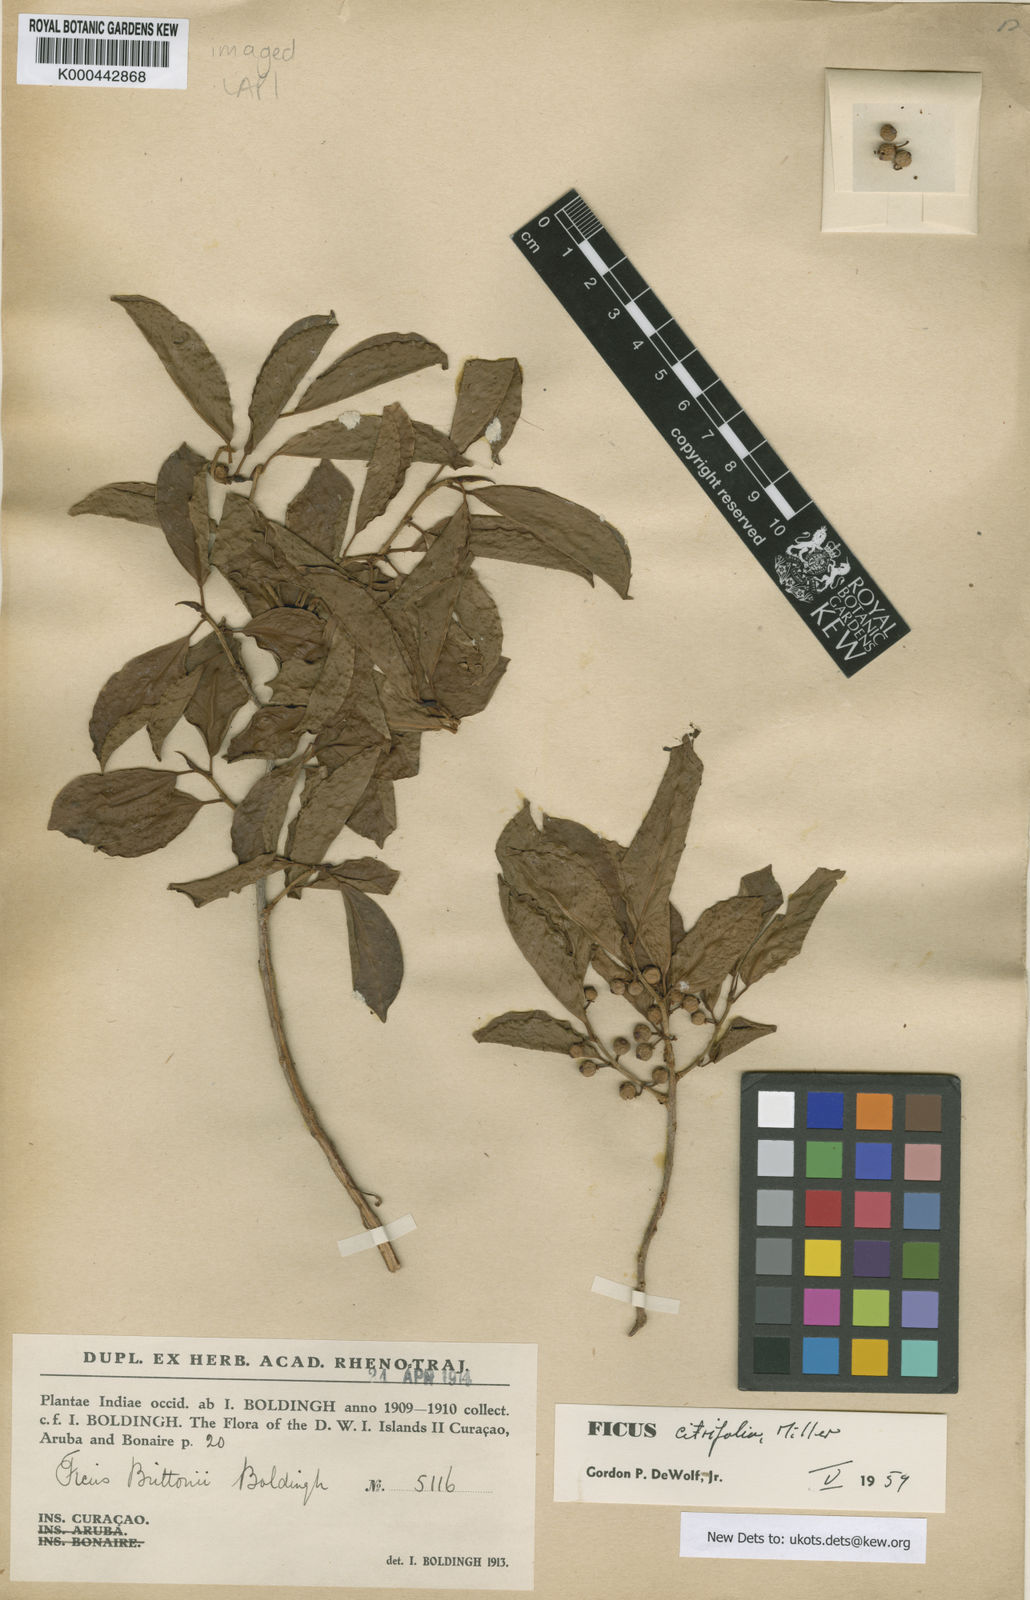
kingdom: Plantae
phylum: Tracheophyta
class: Magnoliopsida
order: Rosales
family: Moraceae
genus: Ficus
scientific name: Ficus citrifolia
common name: Strangler fig
